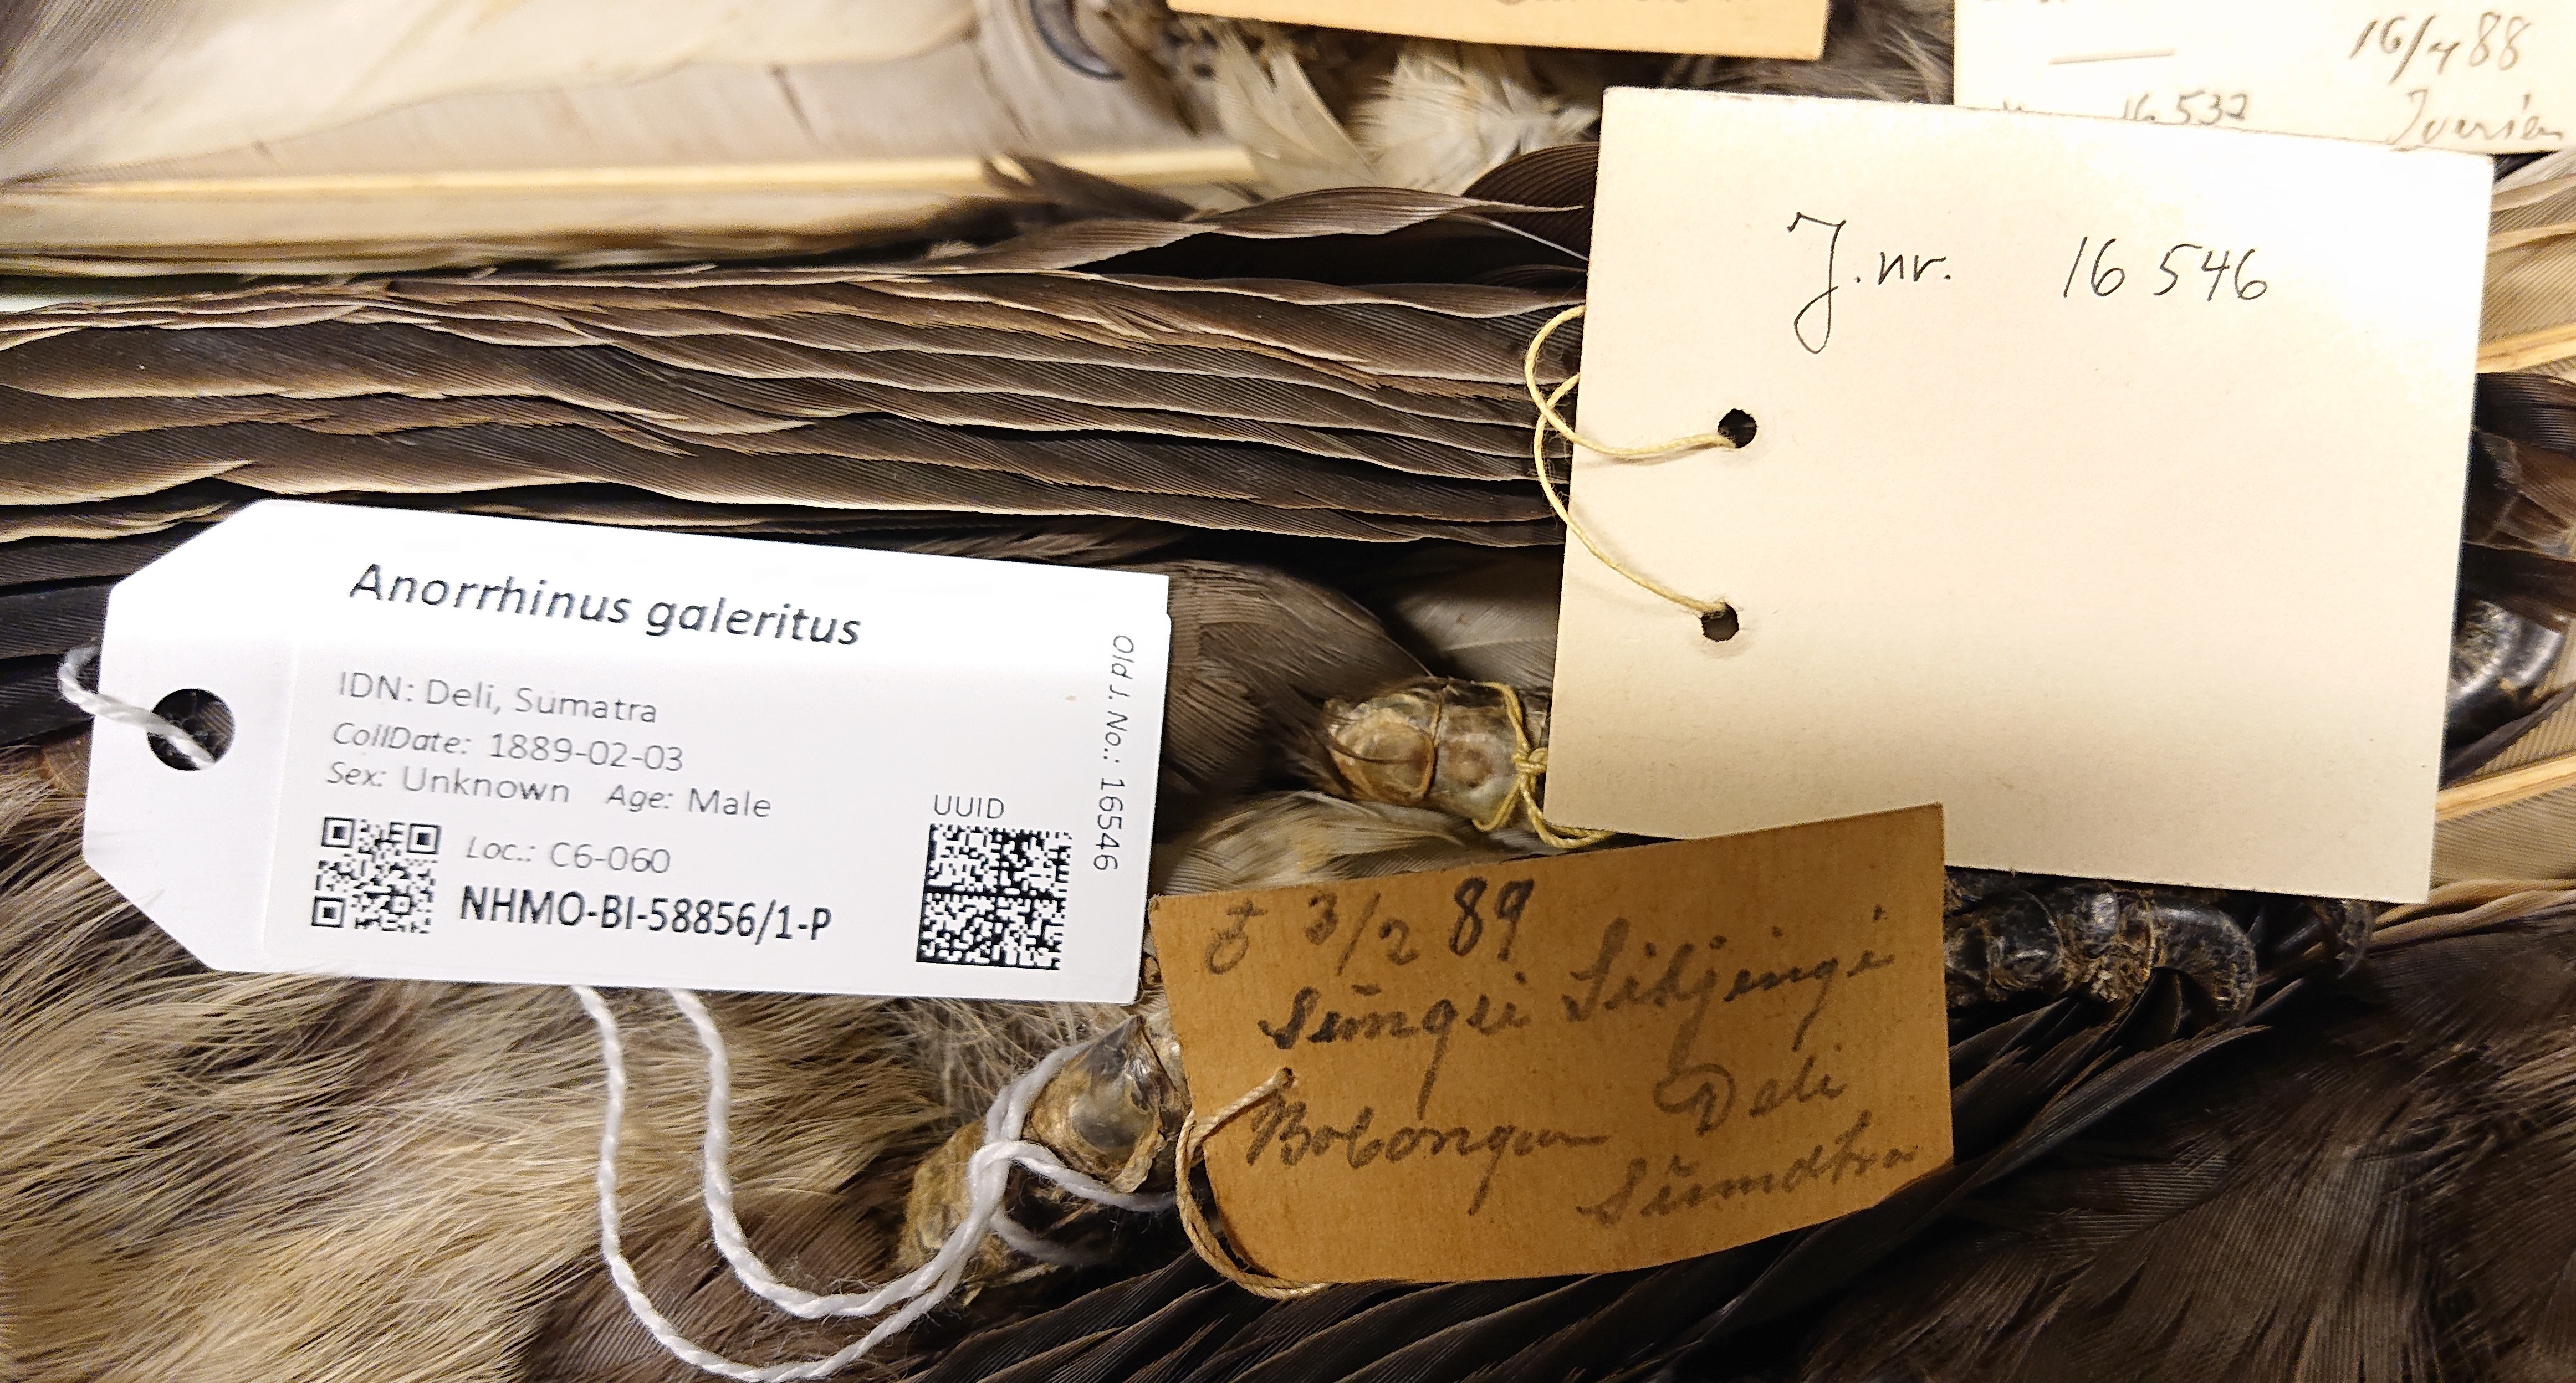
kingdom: Animalia
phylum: Chordata
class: Aves
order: Bucerotiformes
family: Bucerotidae
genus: Anorrhinus
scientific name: Anorrhinus galeritus
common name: Bushy-crested hornbill
